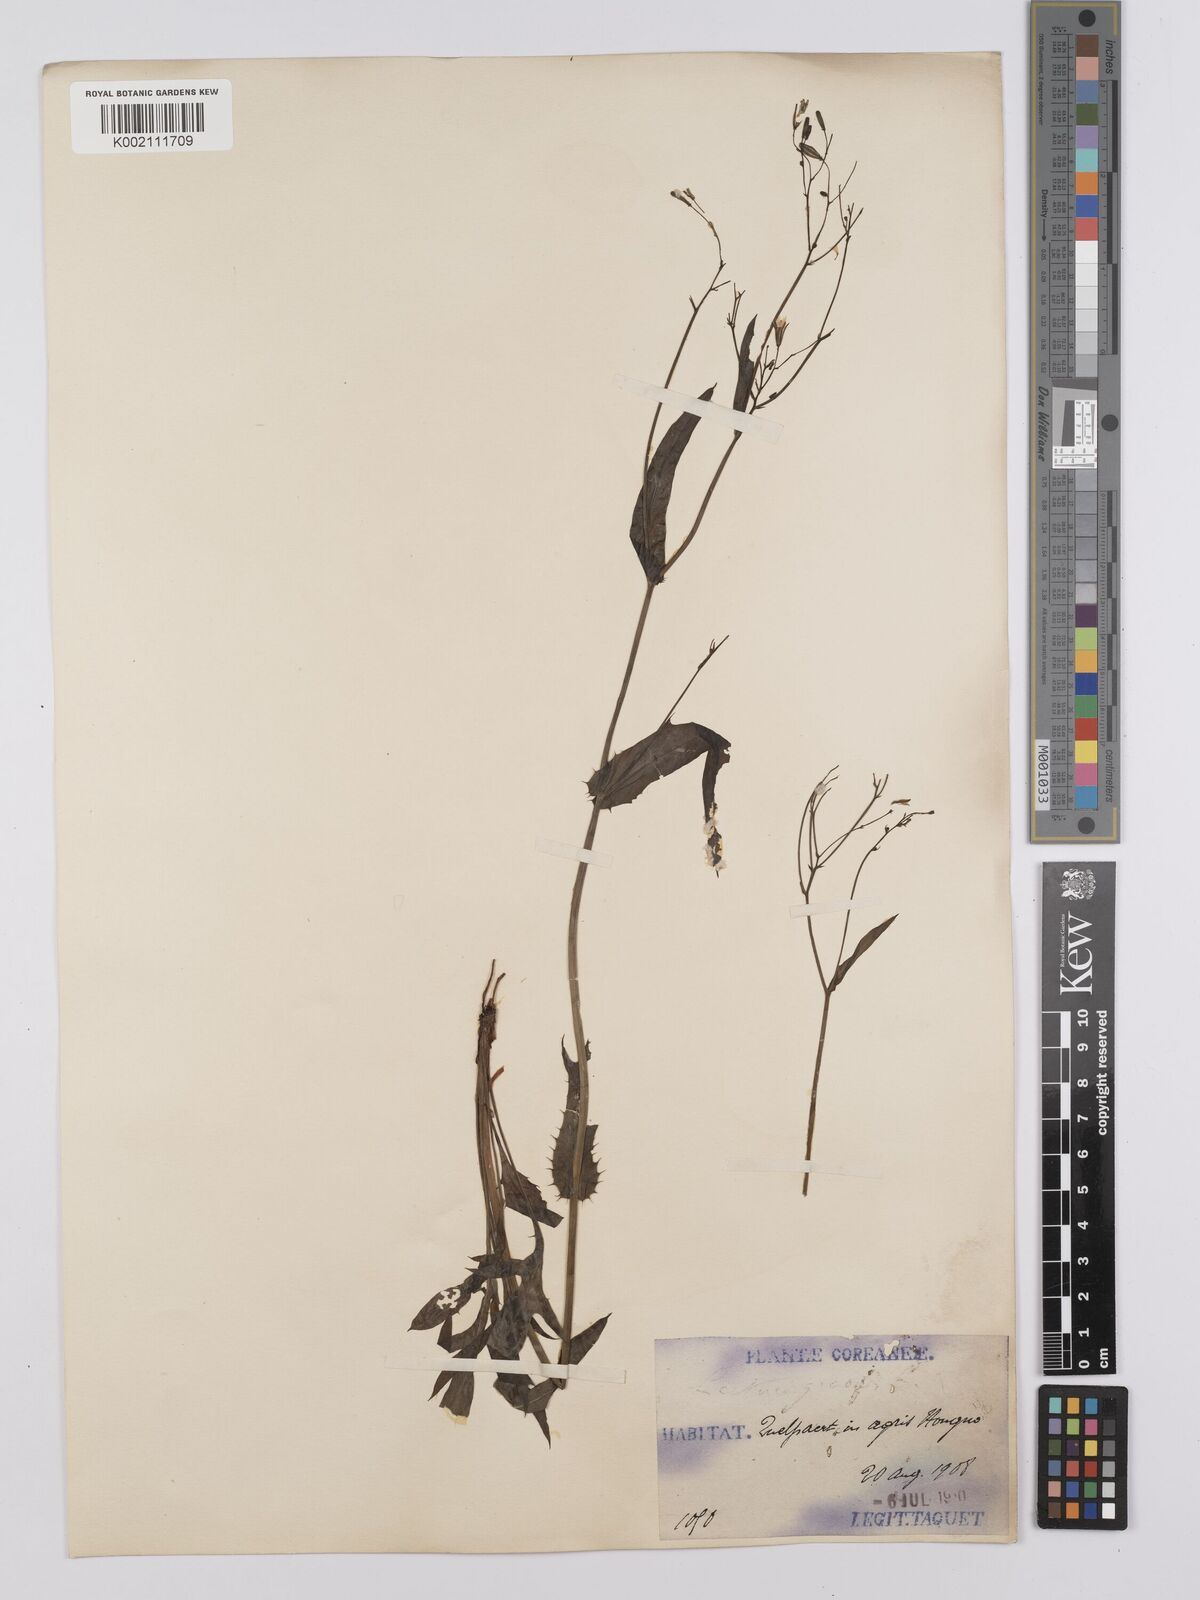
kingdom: Plantae
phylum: Tracheophyta
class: Magnoliopsida
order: Asterales
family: Asteraceae
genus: Ixeridium
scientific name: Ixeridium gracile
